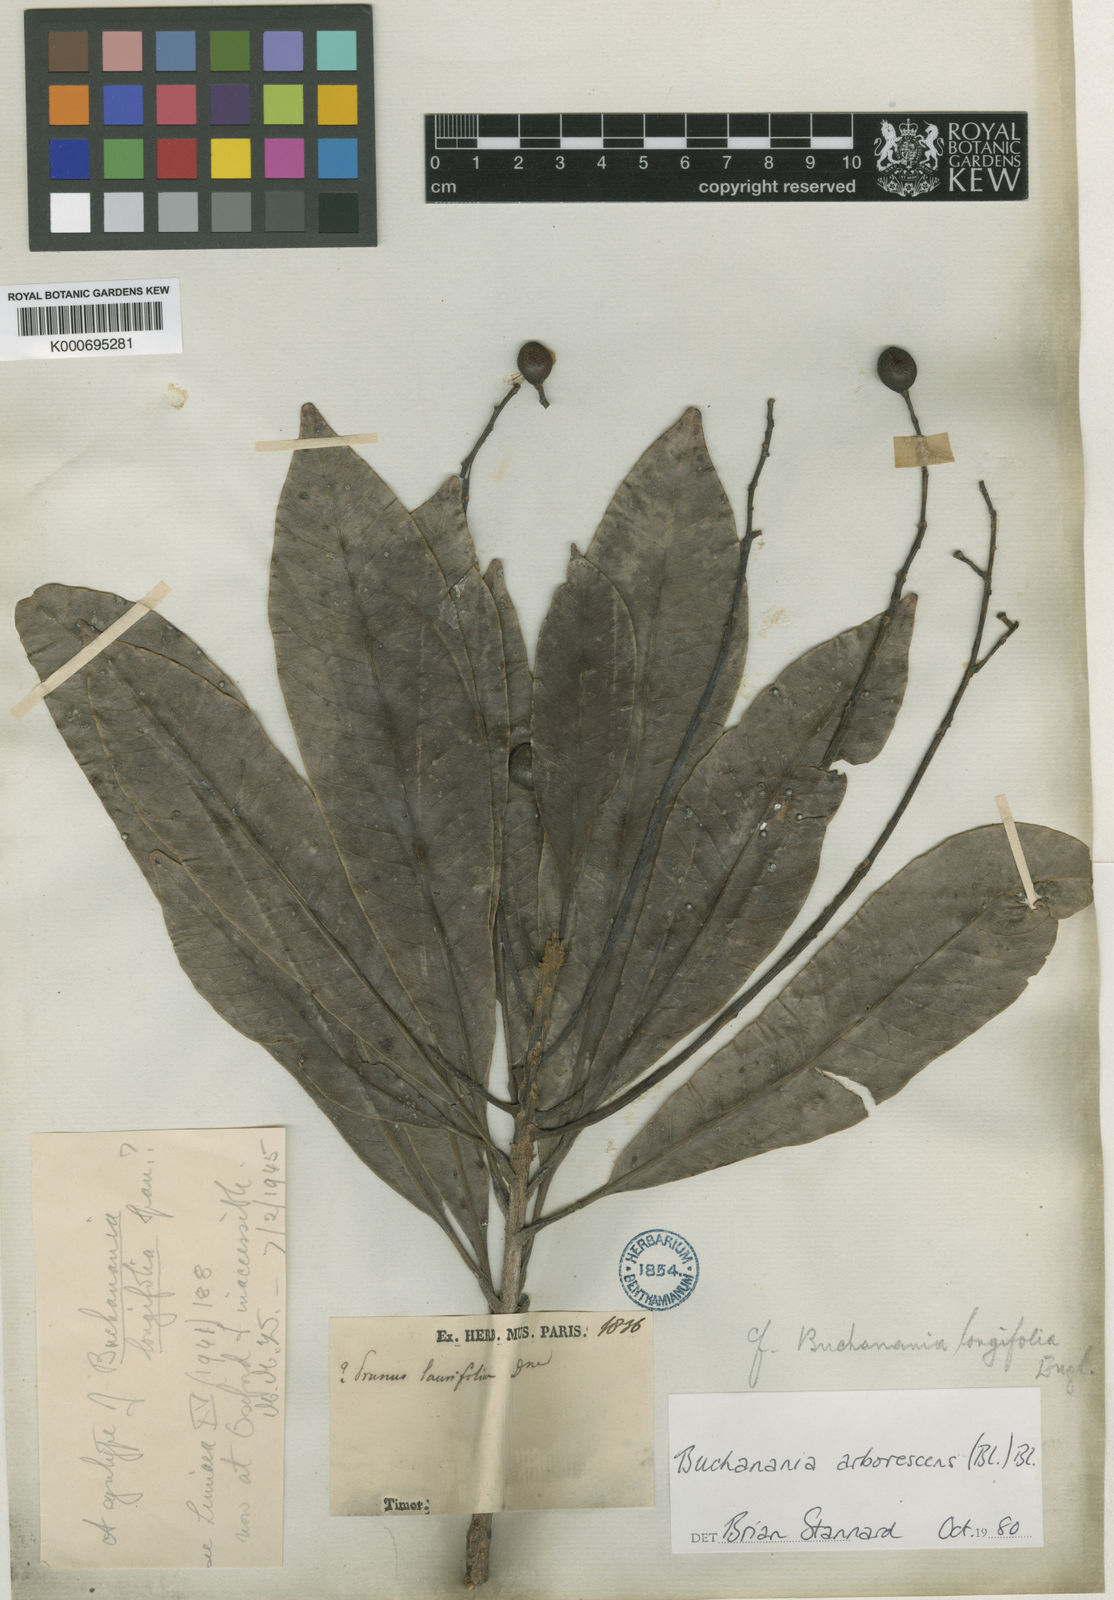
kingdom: Plantae
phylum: Tracheophyta
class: Magnoliopsida
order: Sapindales
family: Anacardiaceae
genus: Buchanania
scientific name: Buchanania arborescens
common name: Sparrow’s mango
